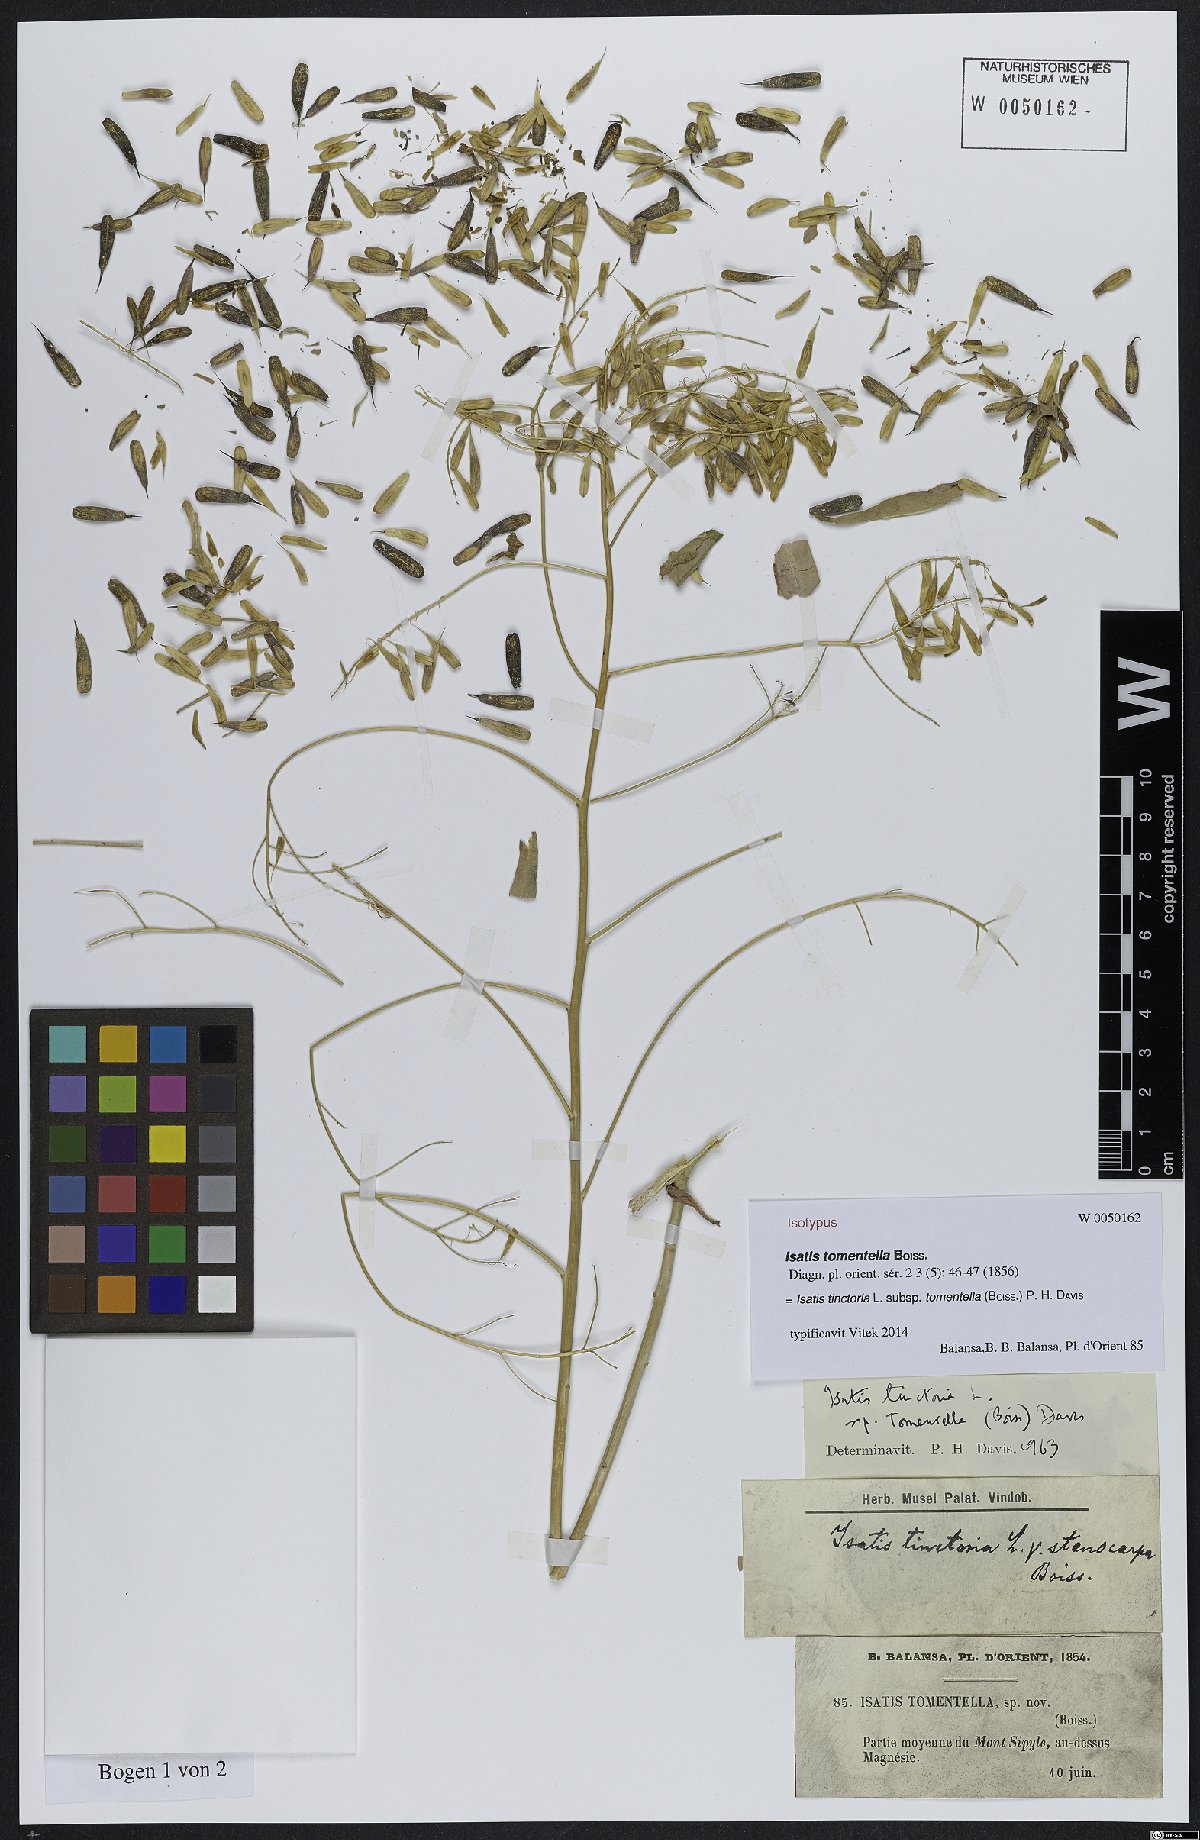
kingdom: Plantae
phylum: Tracheophyta
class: Magnoliopsida
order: Brassicales
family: Brassicaceae
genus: Isatis
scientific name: Isatis tomentella
